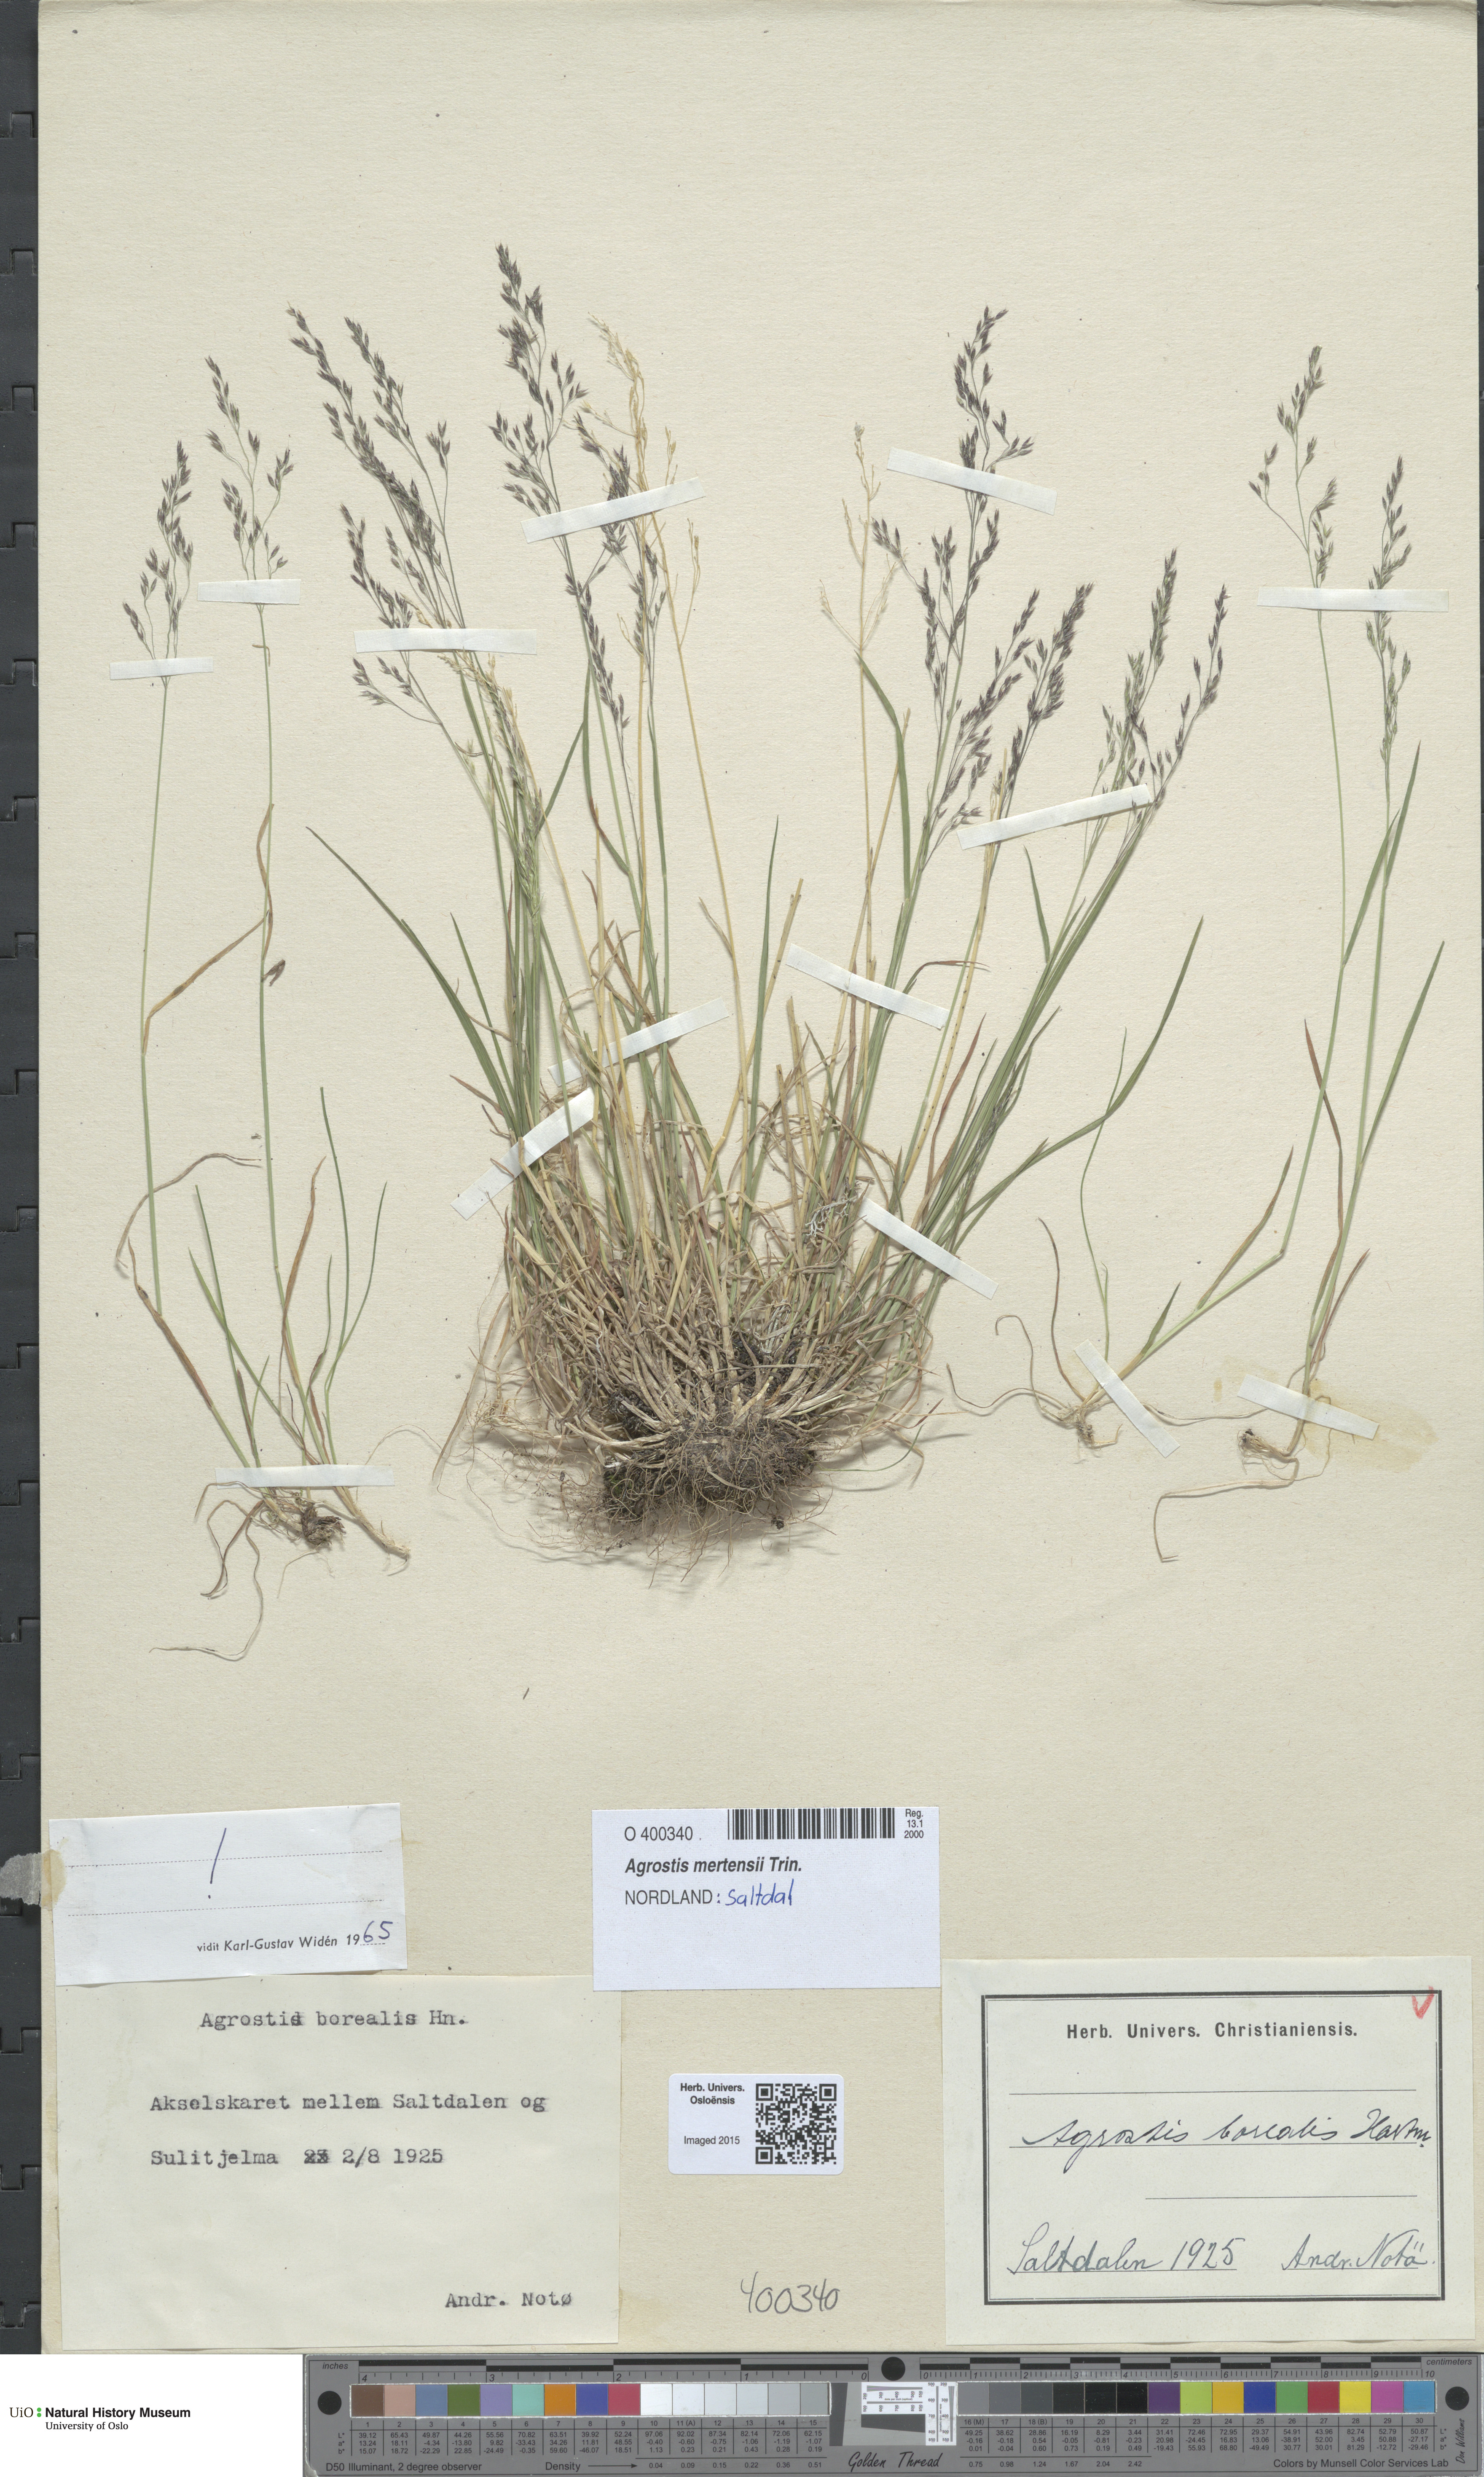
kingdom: Plantae
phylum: Tracheophyta
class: Liliopsida
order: Poales
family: Poaceae
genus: Agrostis
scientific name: Agrostis mertensii
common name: Northern bent
